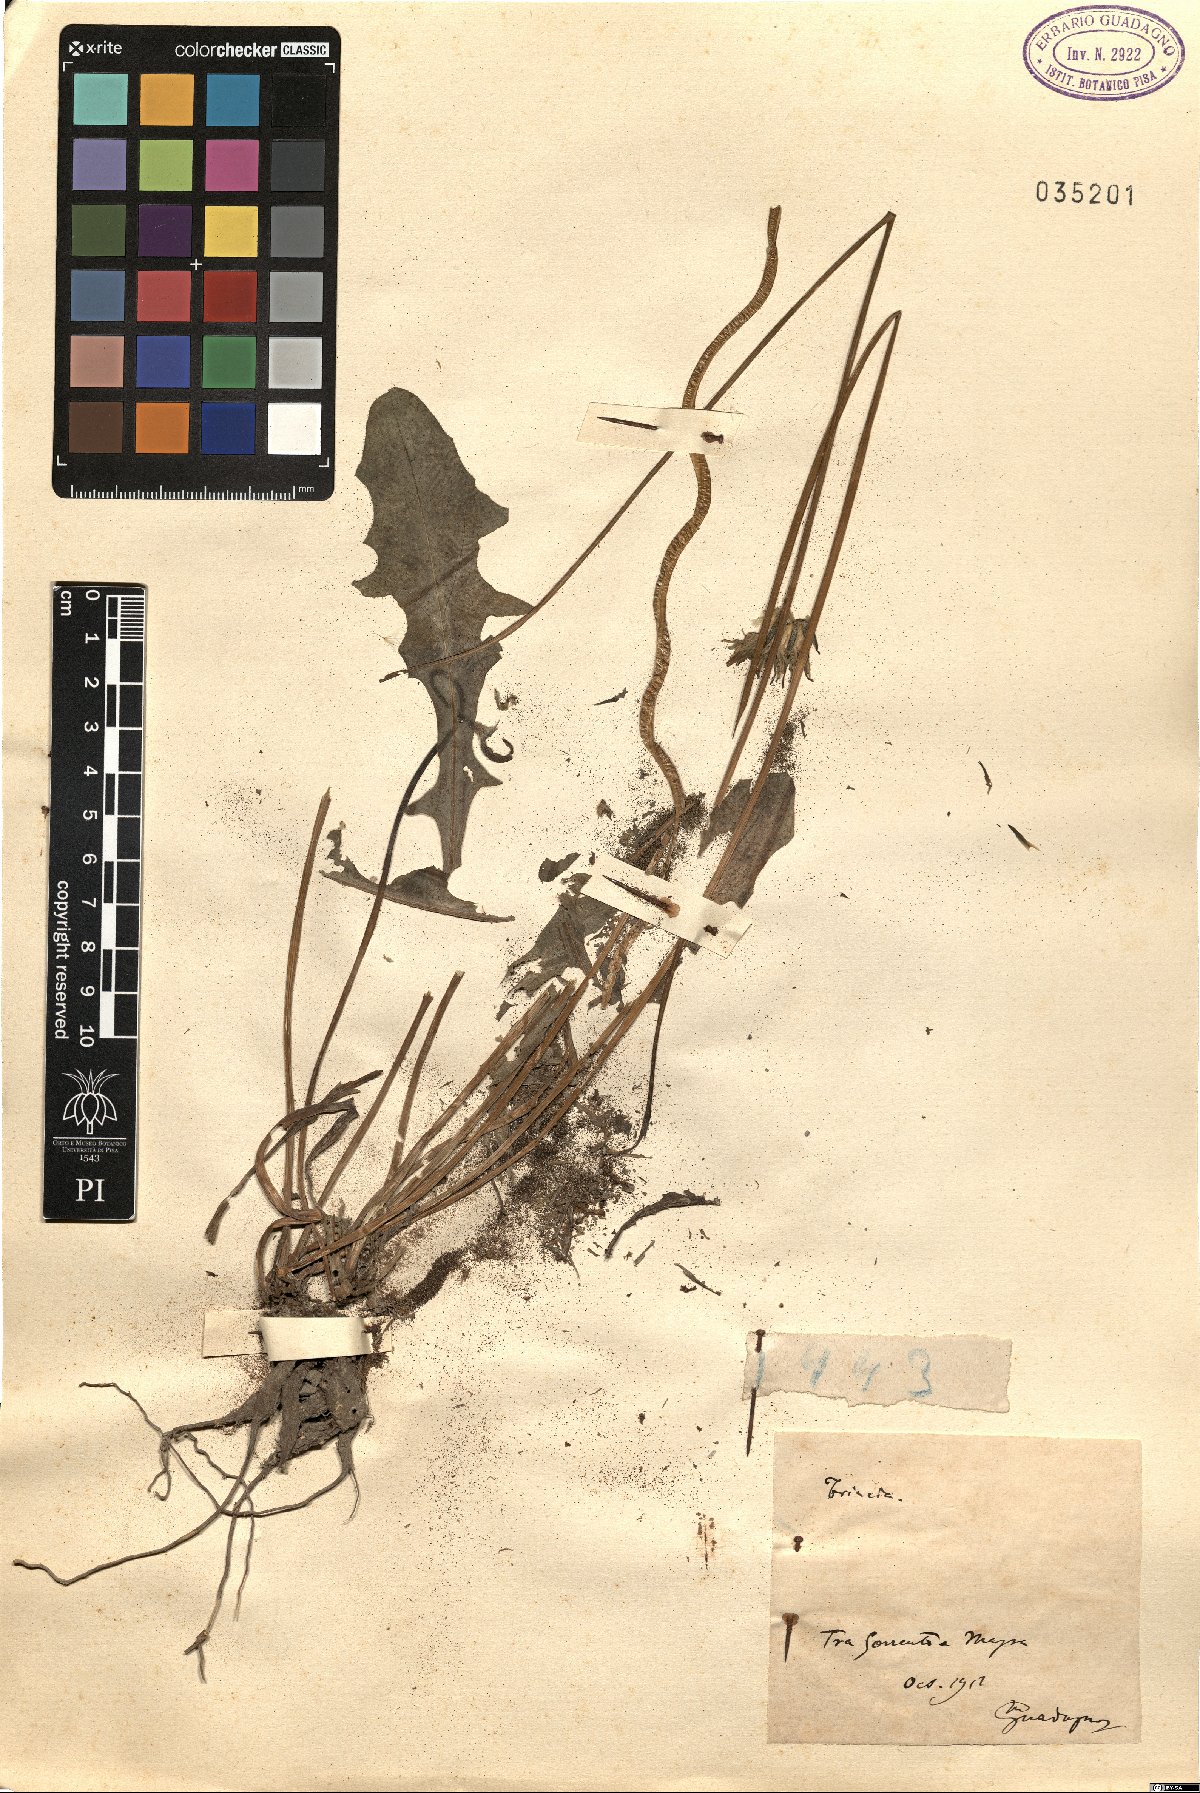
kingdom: Plantae
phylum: Tracheophyta
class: Magnoliopsida
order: Asterales
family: Asteraceae
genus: Thrincia
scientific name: Thrincia
